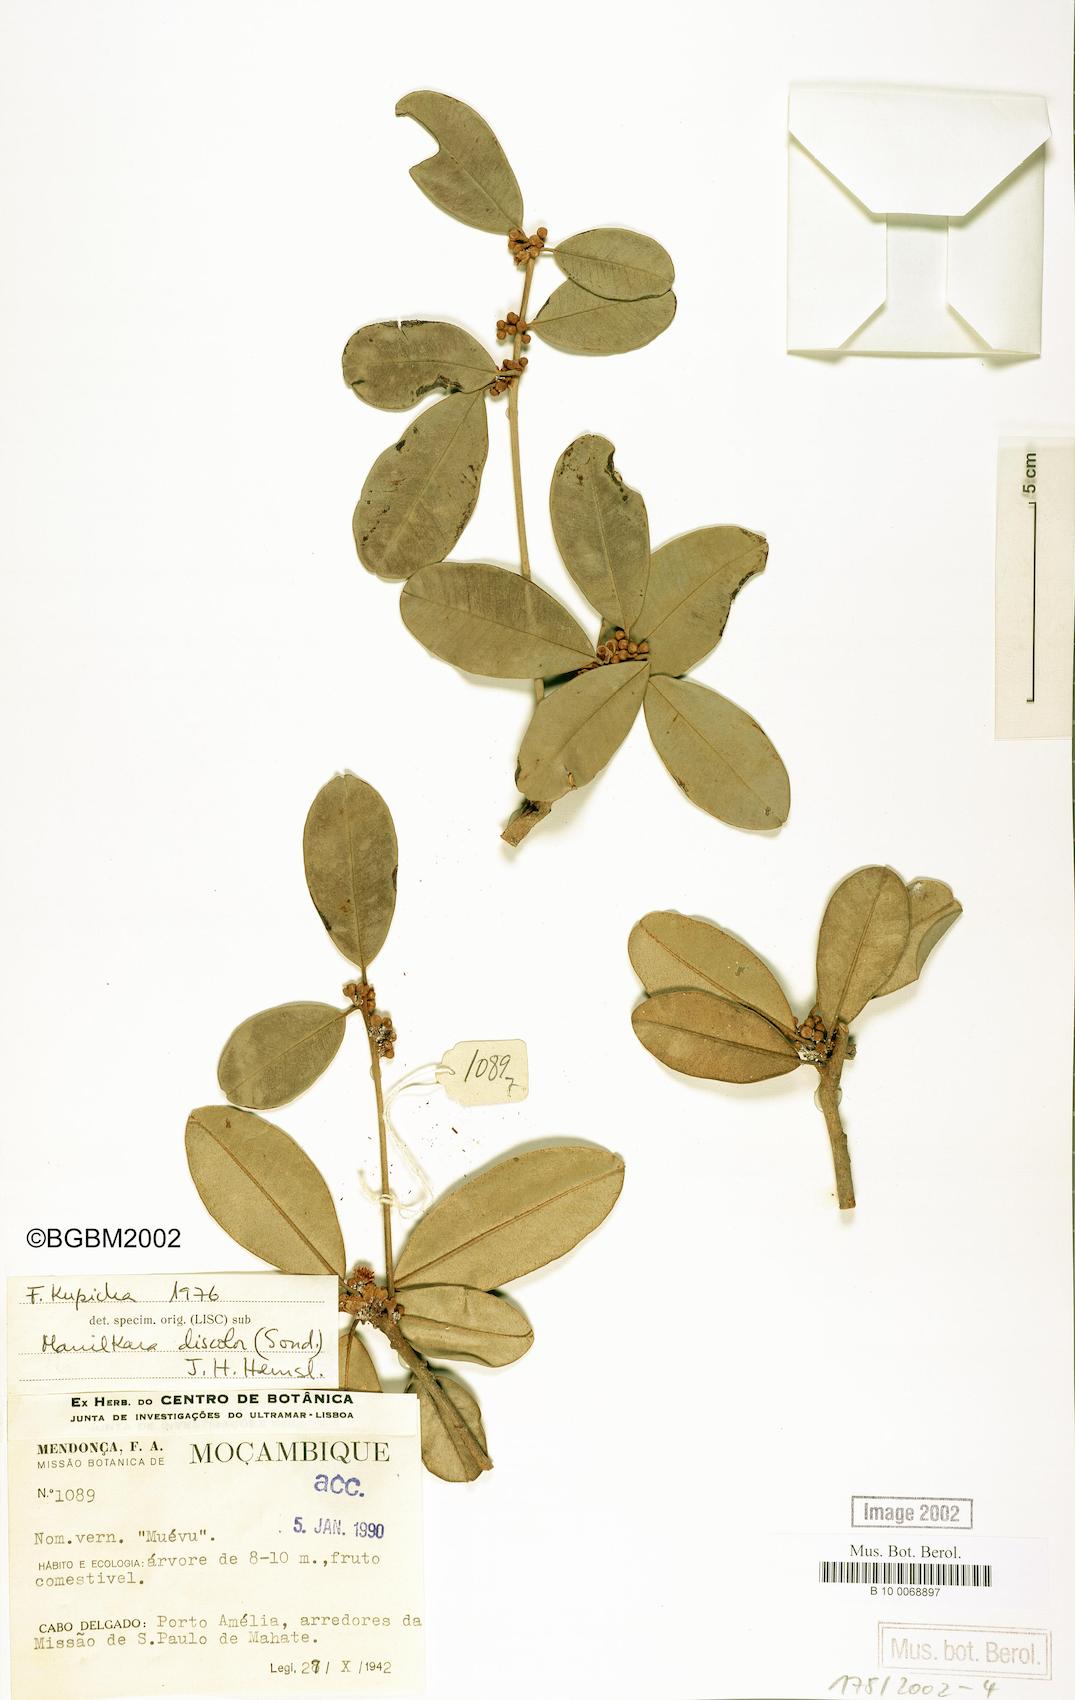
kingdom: Plantae
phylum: Tracheophyta
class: Magnoliopsida
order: Ericales
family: Sapotaceae
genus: Manilkara
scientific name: Manilkara discolor
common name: Forest milkberry
